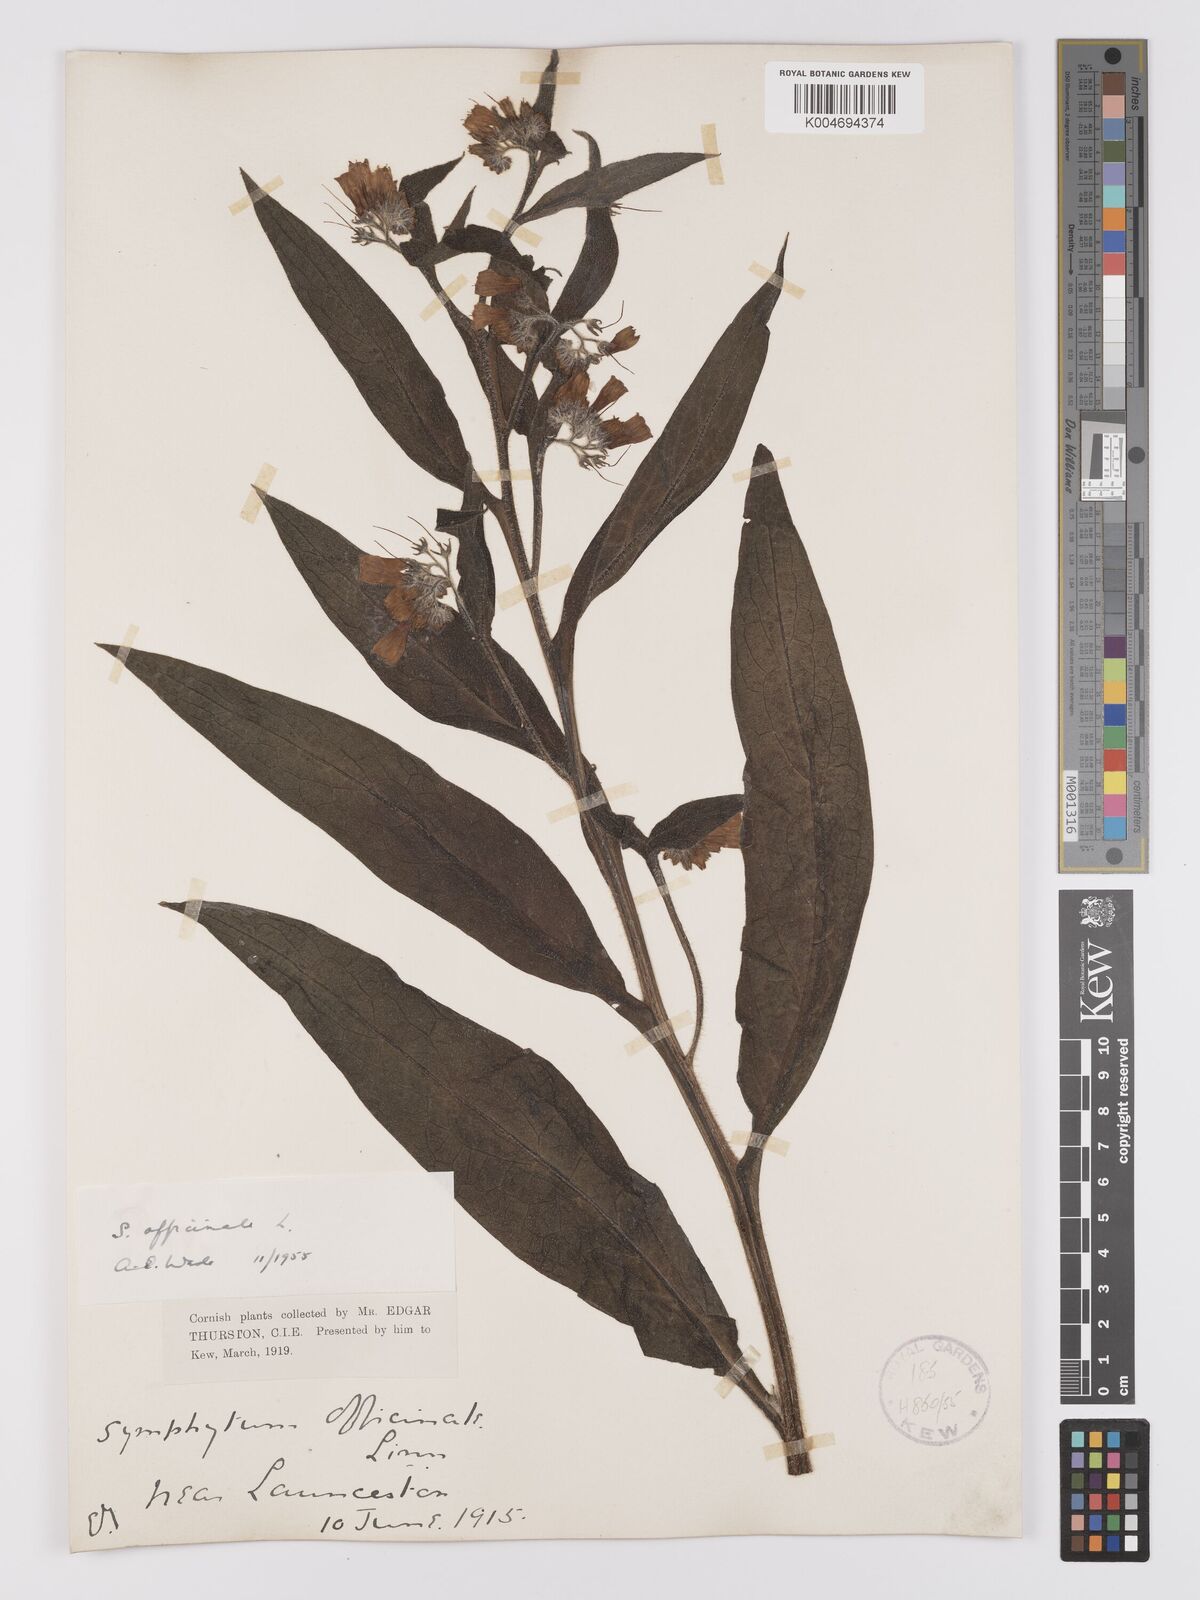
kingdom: Plantae
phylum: Tracheophyta
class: Magnoliopsida
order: Boraginales
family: Boraginaceae
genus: Symphytum
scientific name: Symphytum officinale
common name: Common comfrey
